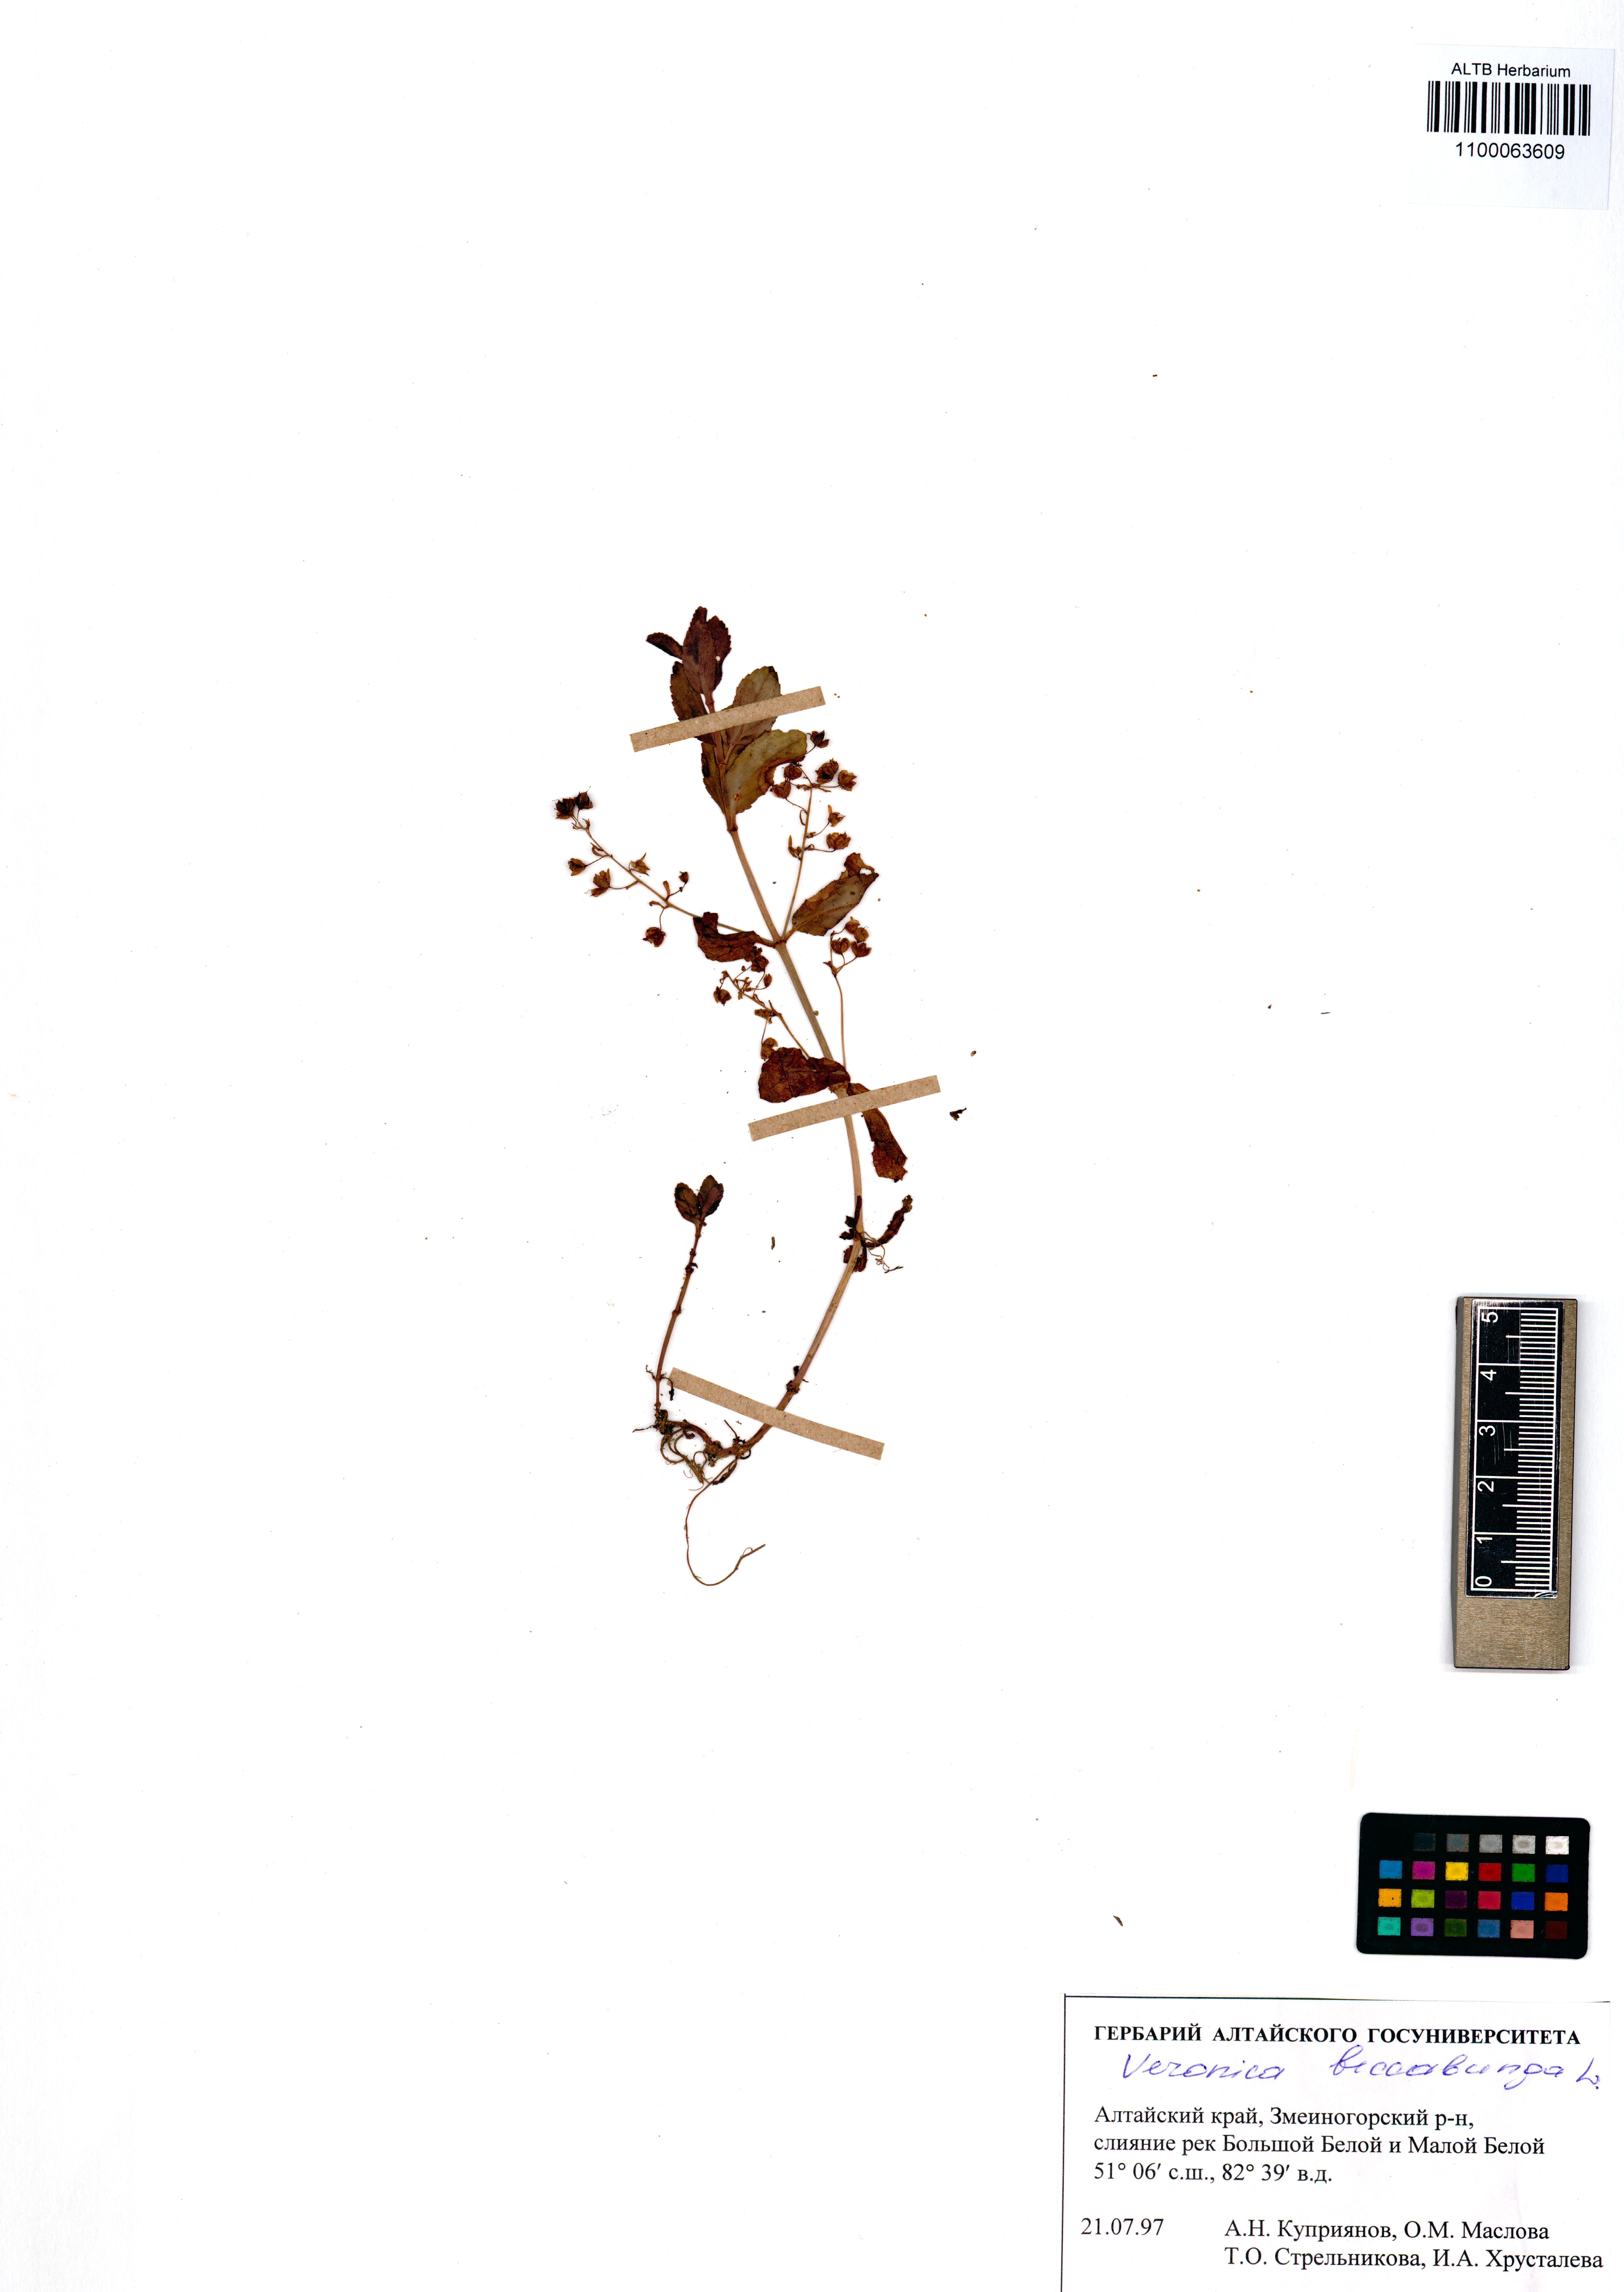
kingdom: Plantae
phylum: Tracheophyta
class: Magnoliopsida
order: Lamiales
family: Plantaginaceae
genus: Veronica
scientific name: Veronica beccabunga
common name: Brooklime
